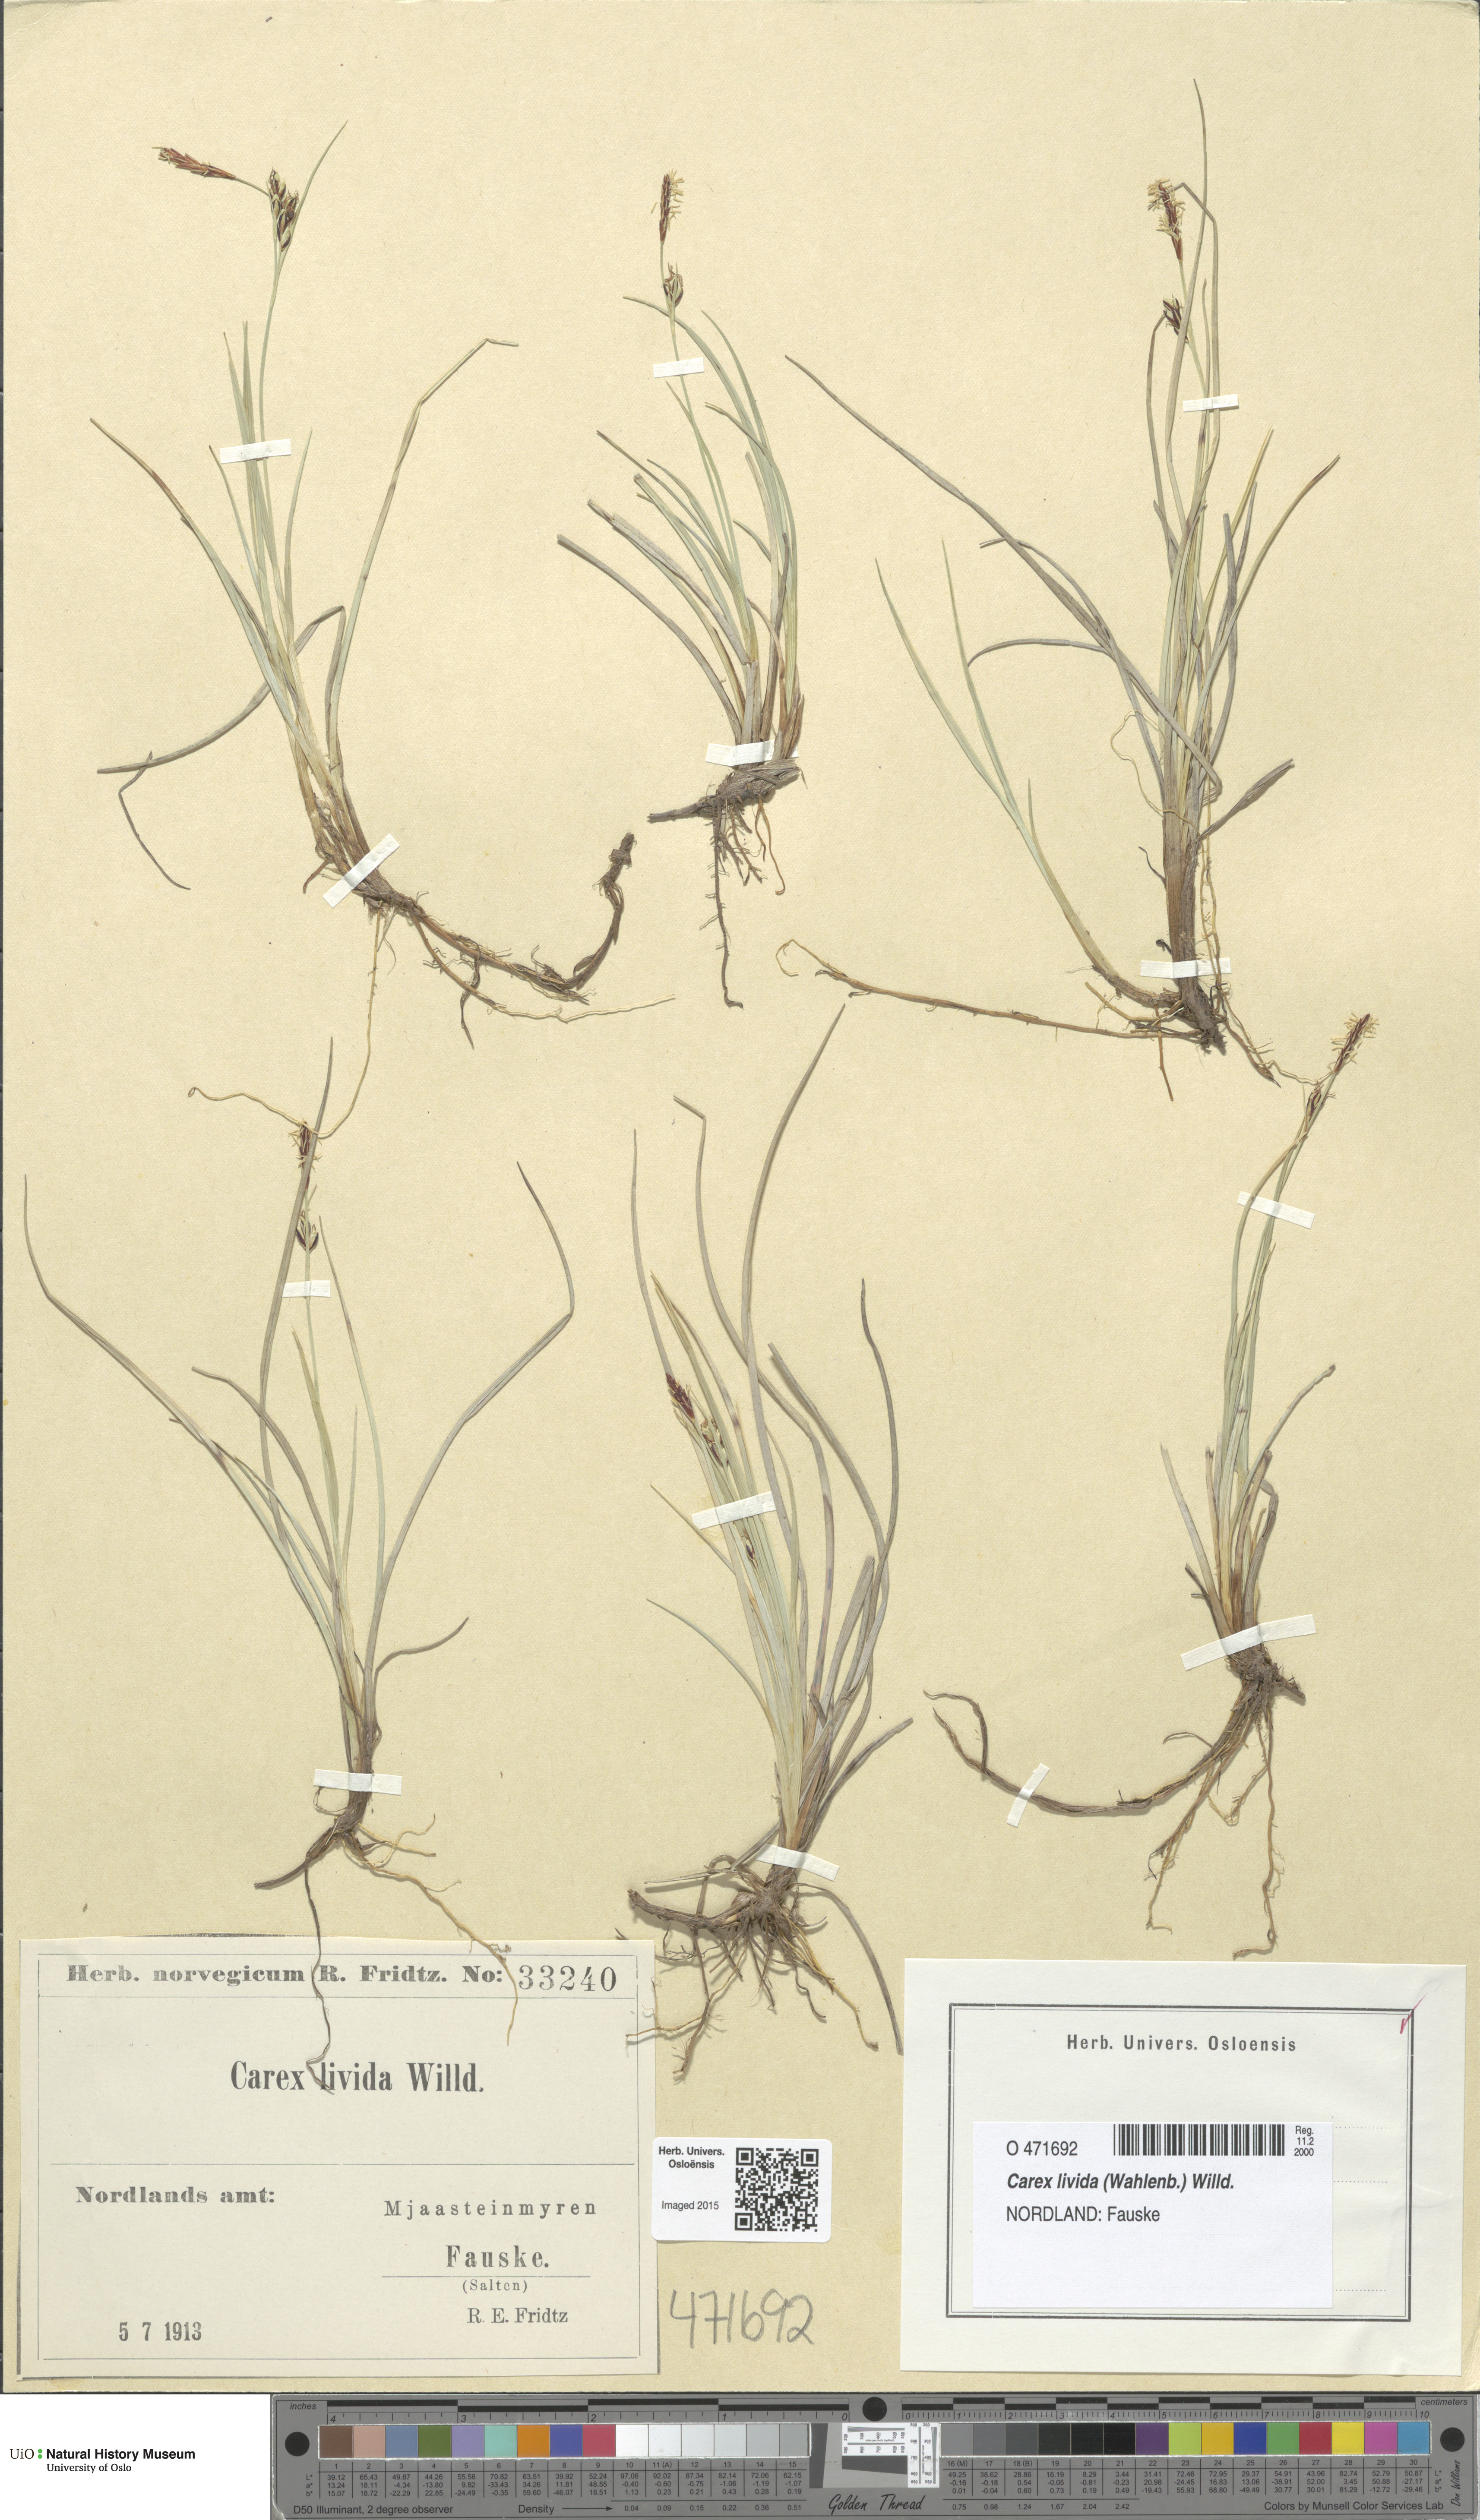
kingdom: Plantae
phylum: Tracheophyta
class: Liliopsida
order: Poales
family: Cyperaceae
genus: Carex
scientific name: Carex livida
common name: Livid sedge
